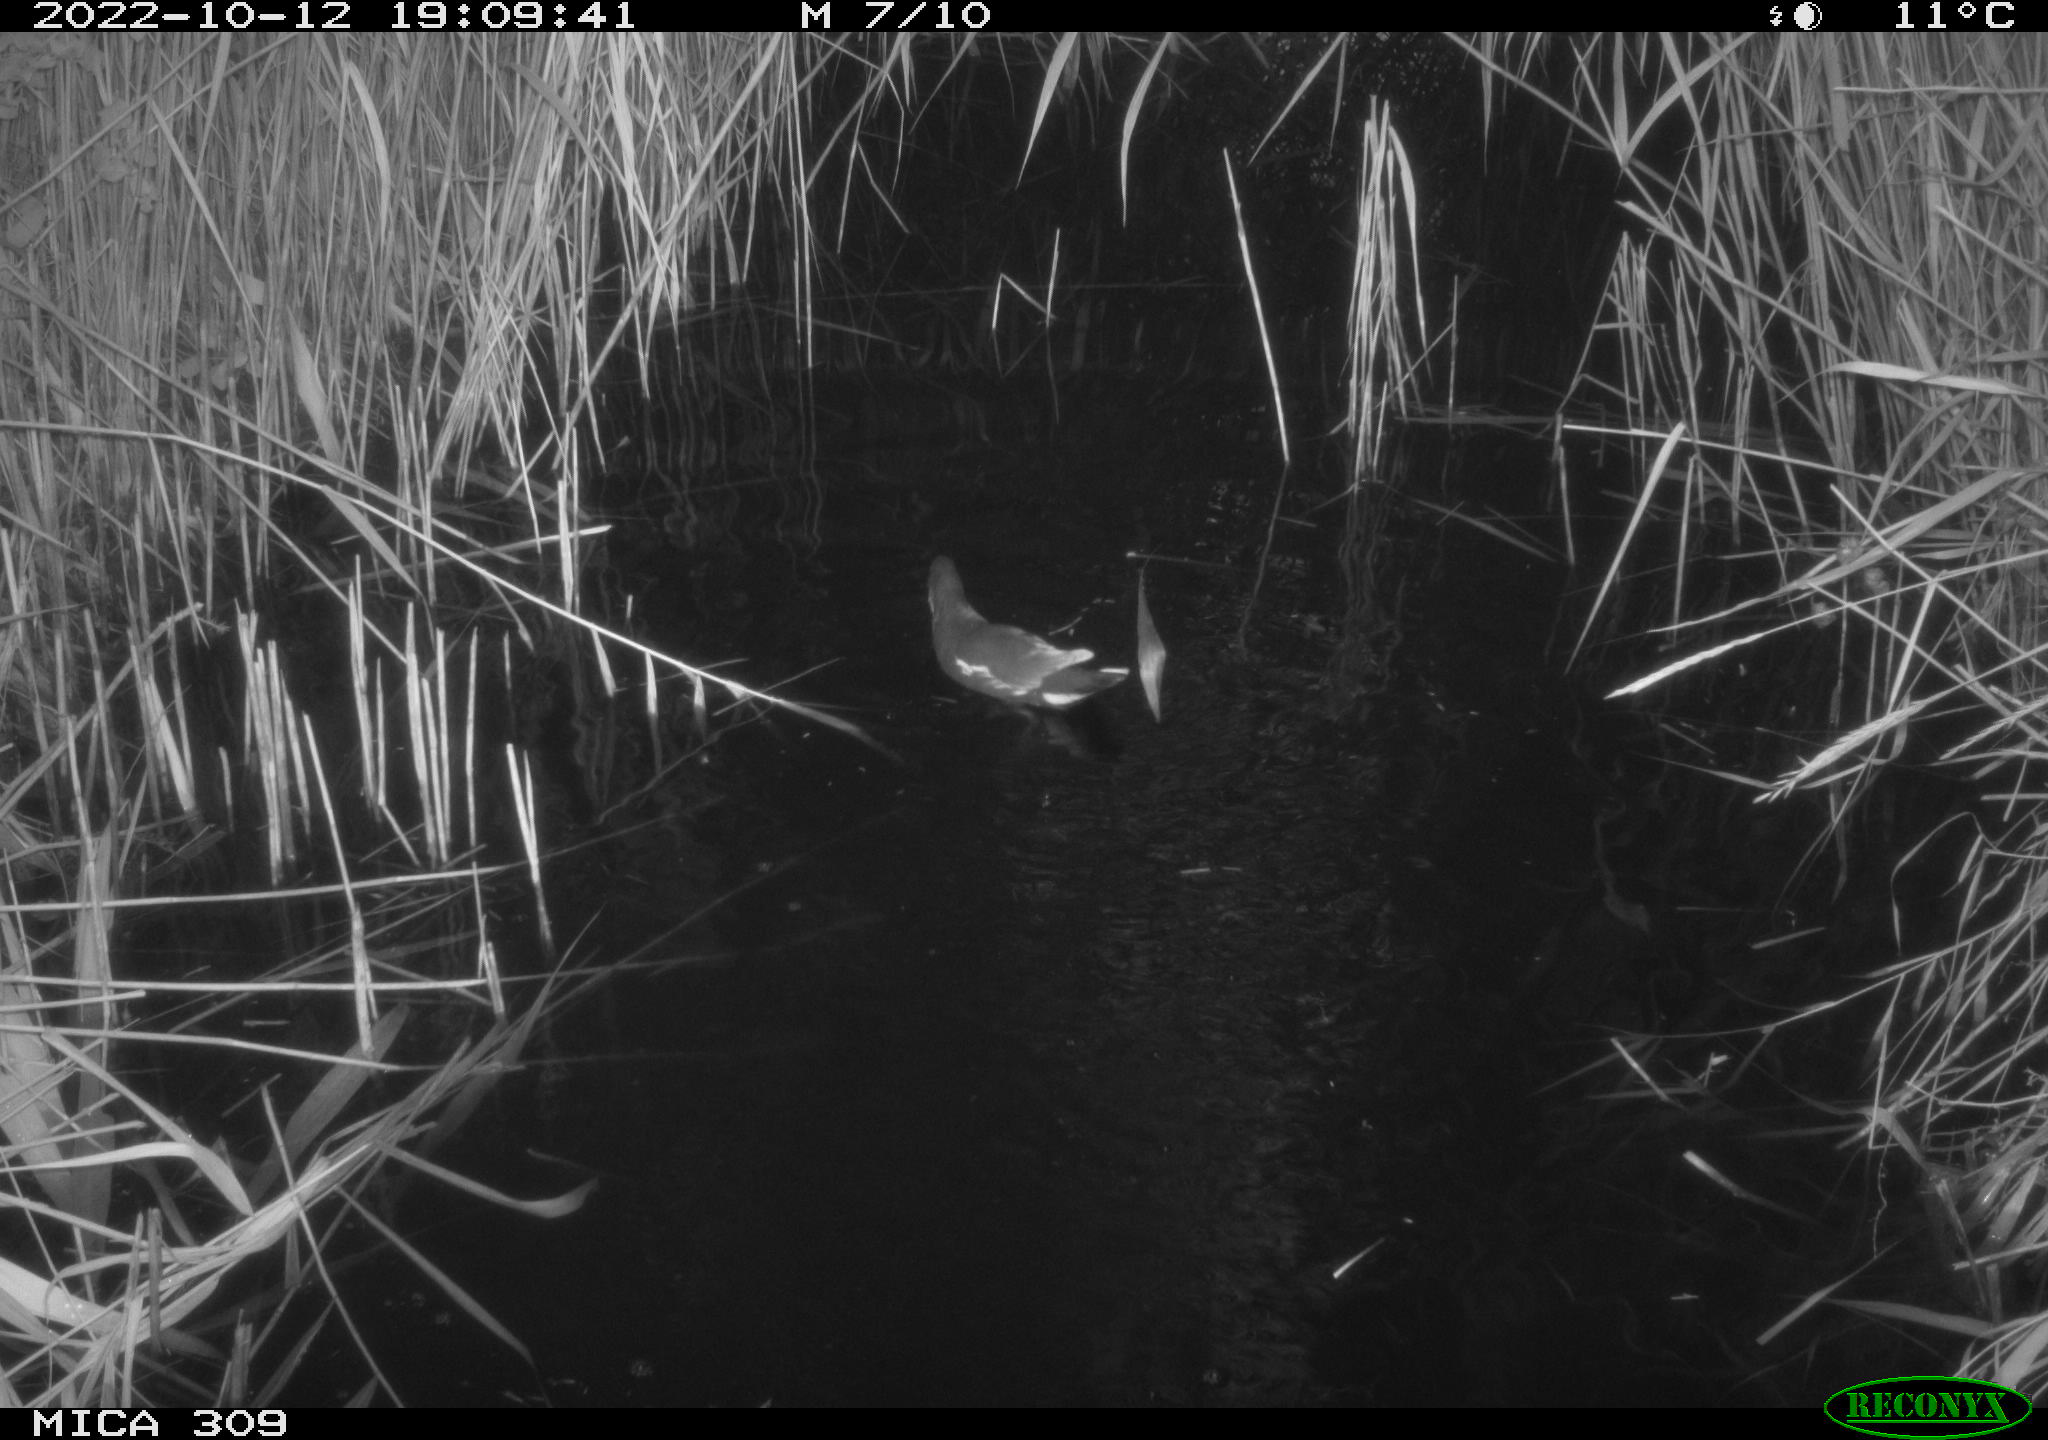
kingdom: Animalia
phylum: Chordata
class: Aves
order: Gruiformes
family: Rallidae
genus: Gallinula
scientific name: Gallinula chloropus
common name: Common moorhen
